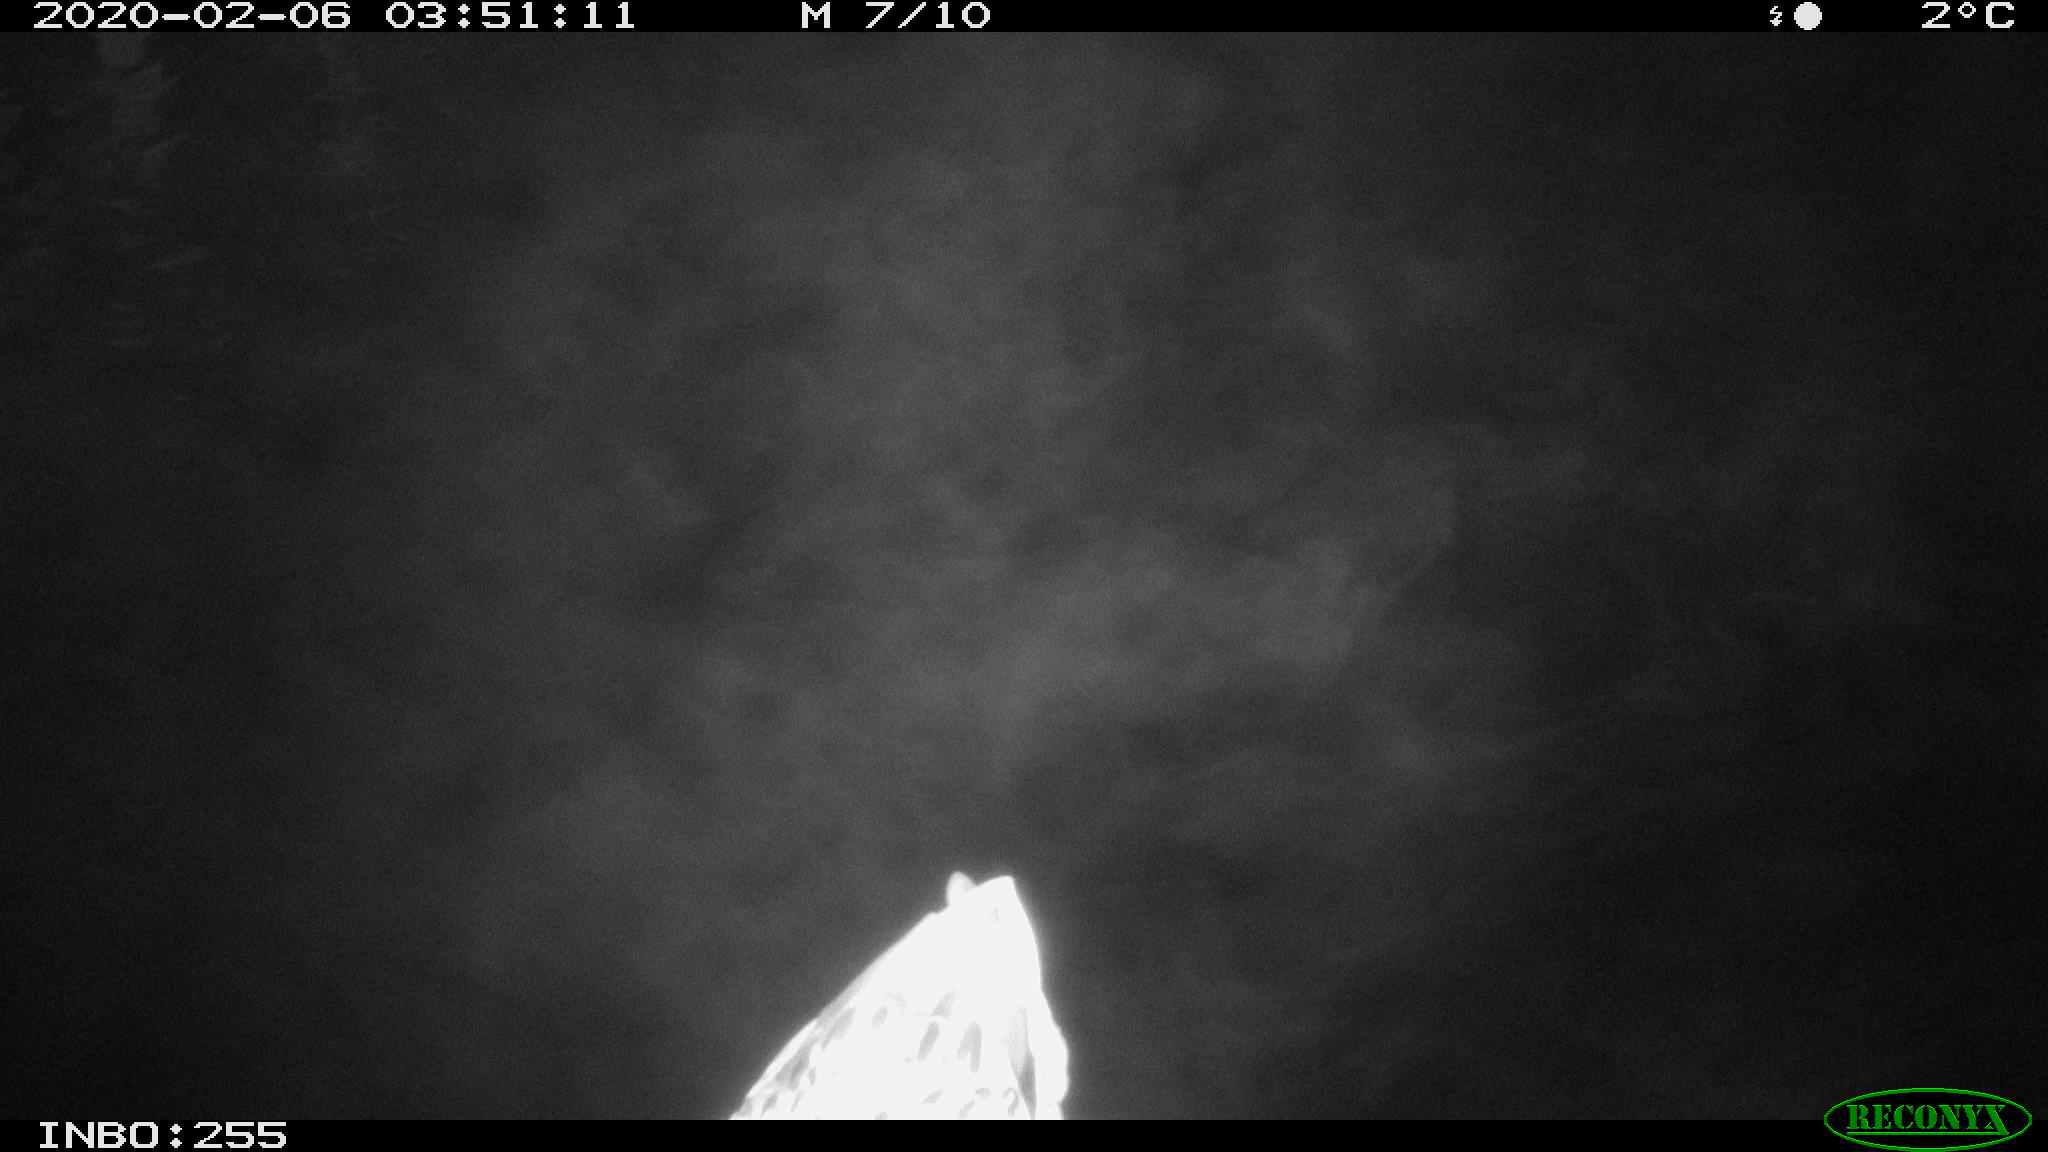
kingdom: Animalia
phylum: Chordata
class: Aves
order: Anseriformes
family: Anatidae
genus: Anas
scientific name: Anas platyrhynchos
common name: Mallard
